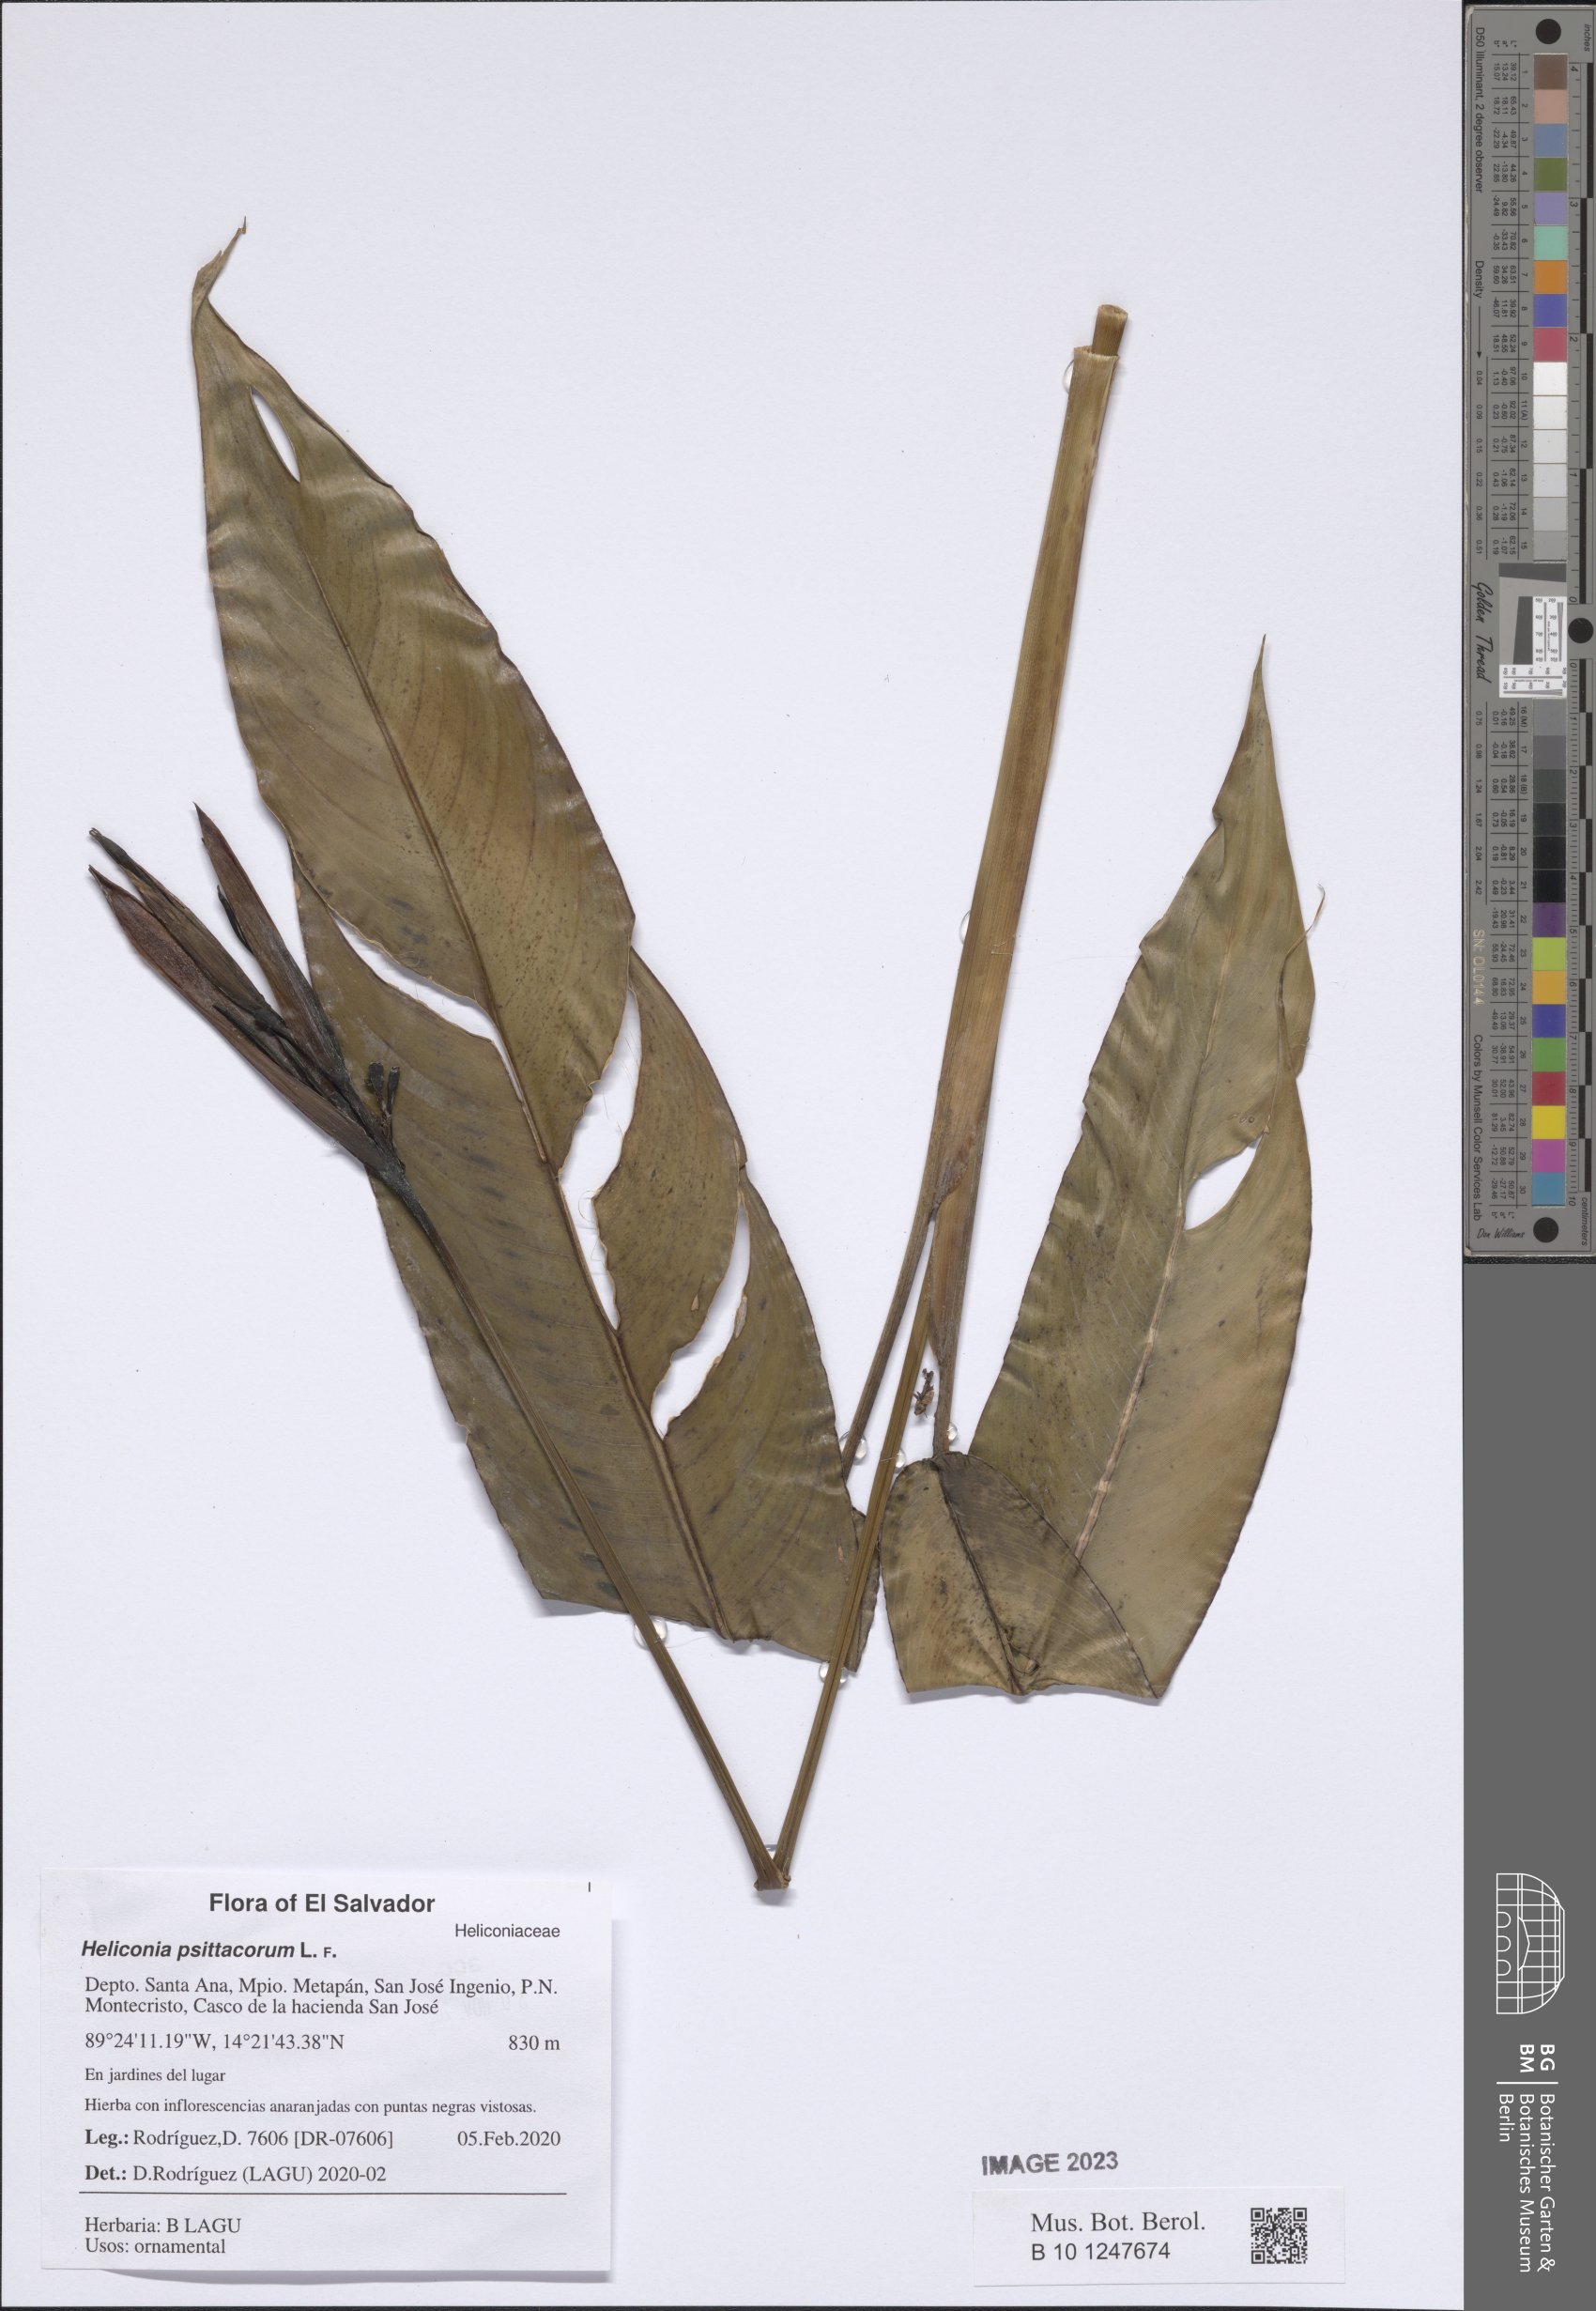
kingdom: Plantae
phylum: Tracheophyta
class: Liliopsida
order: Zingiberales
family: Heliconiaceae
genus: Heliconia
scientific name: Heliconia psittacorum
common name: Parrot's-flower
